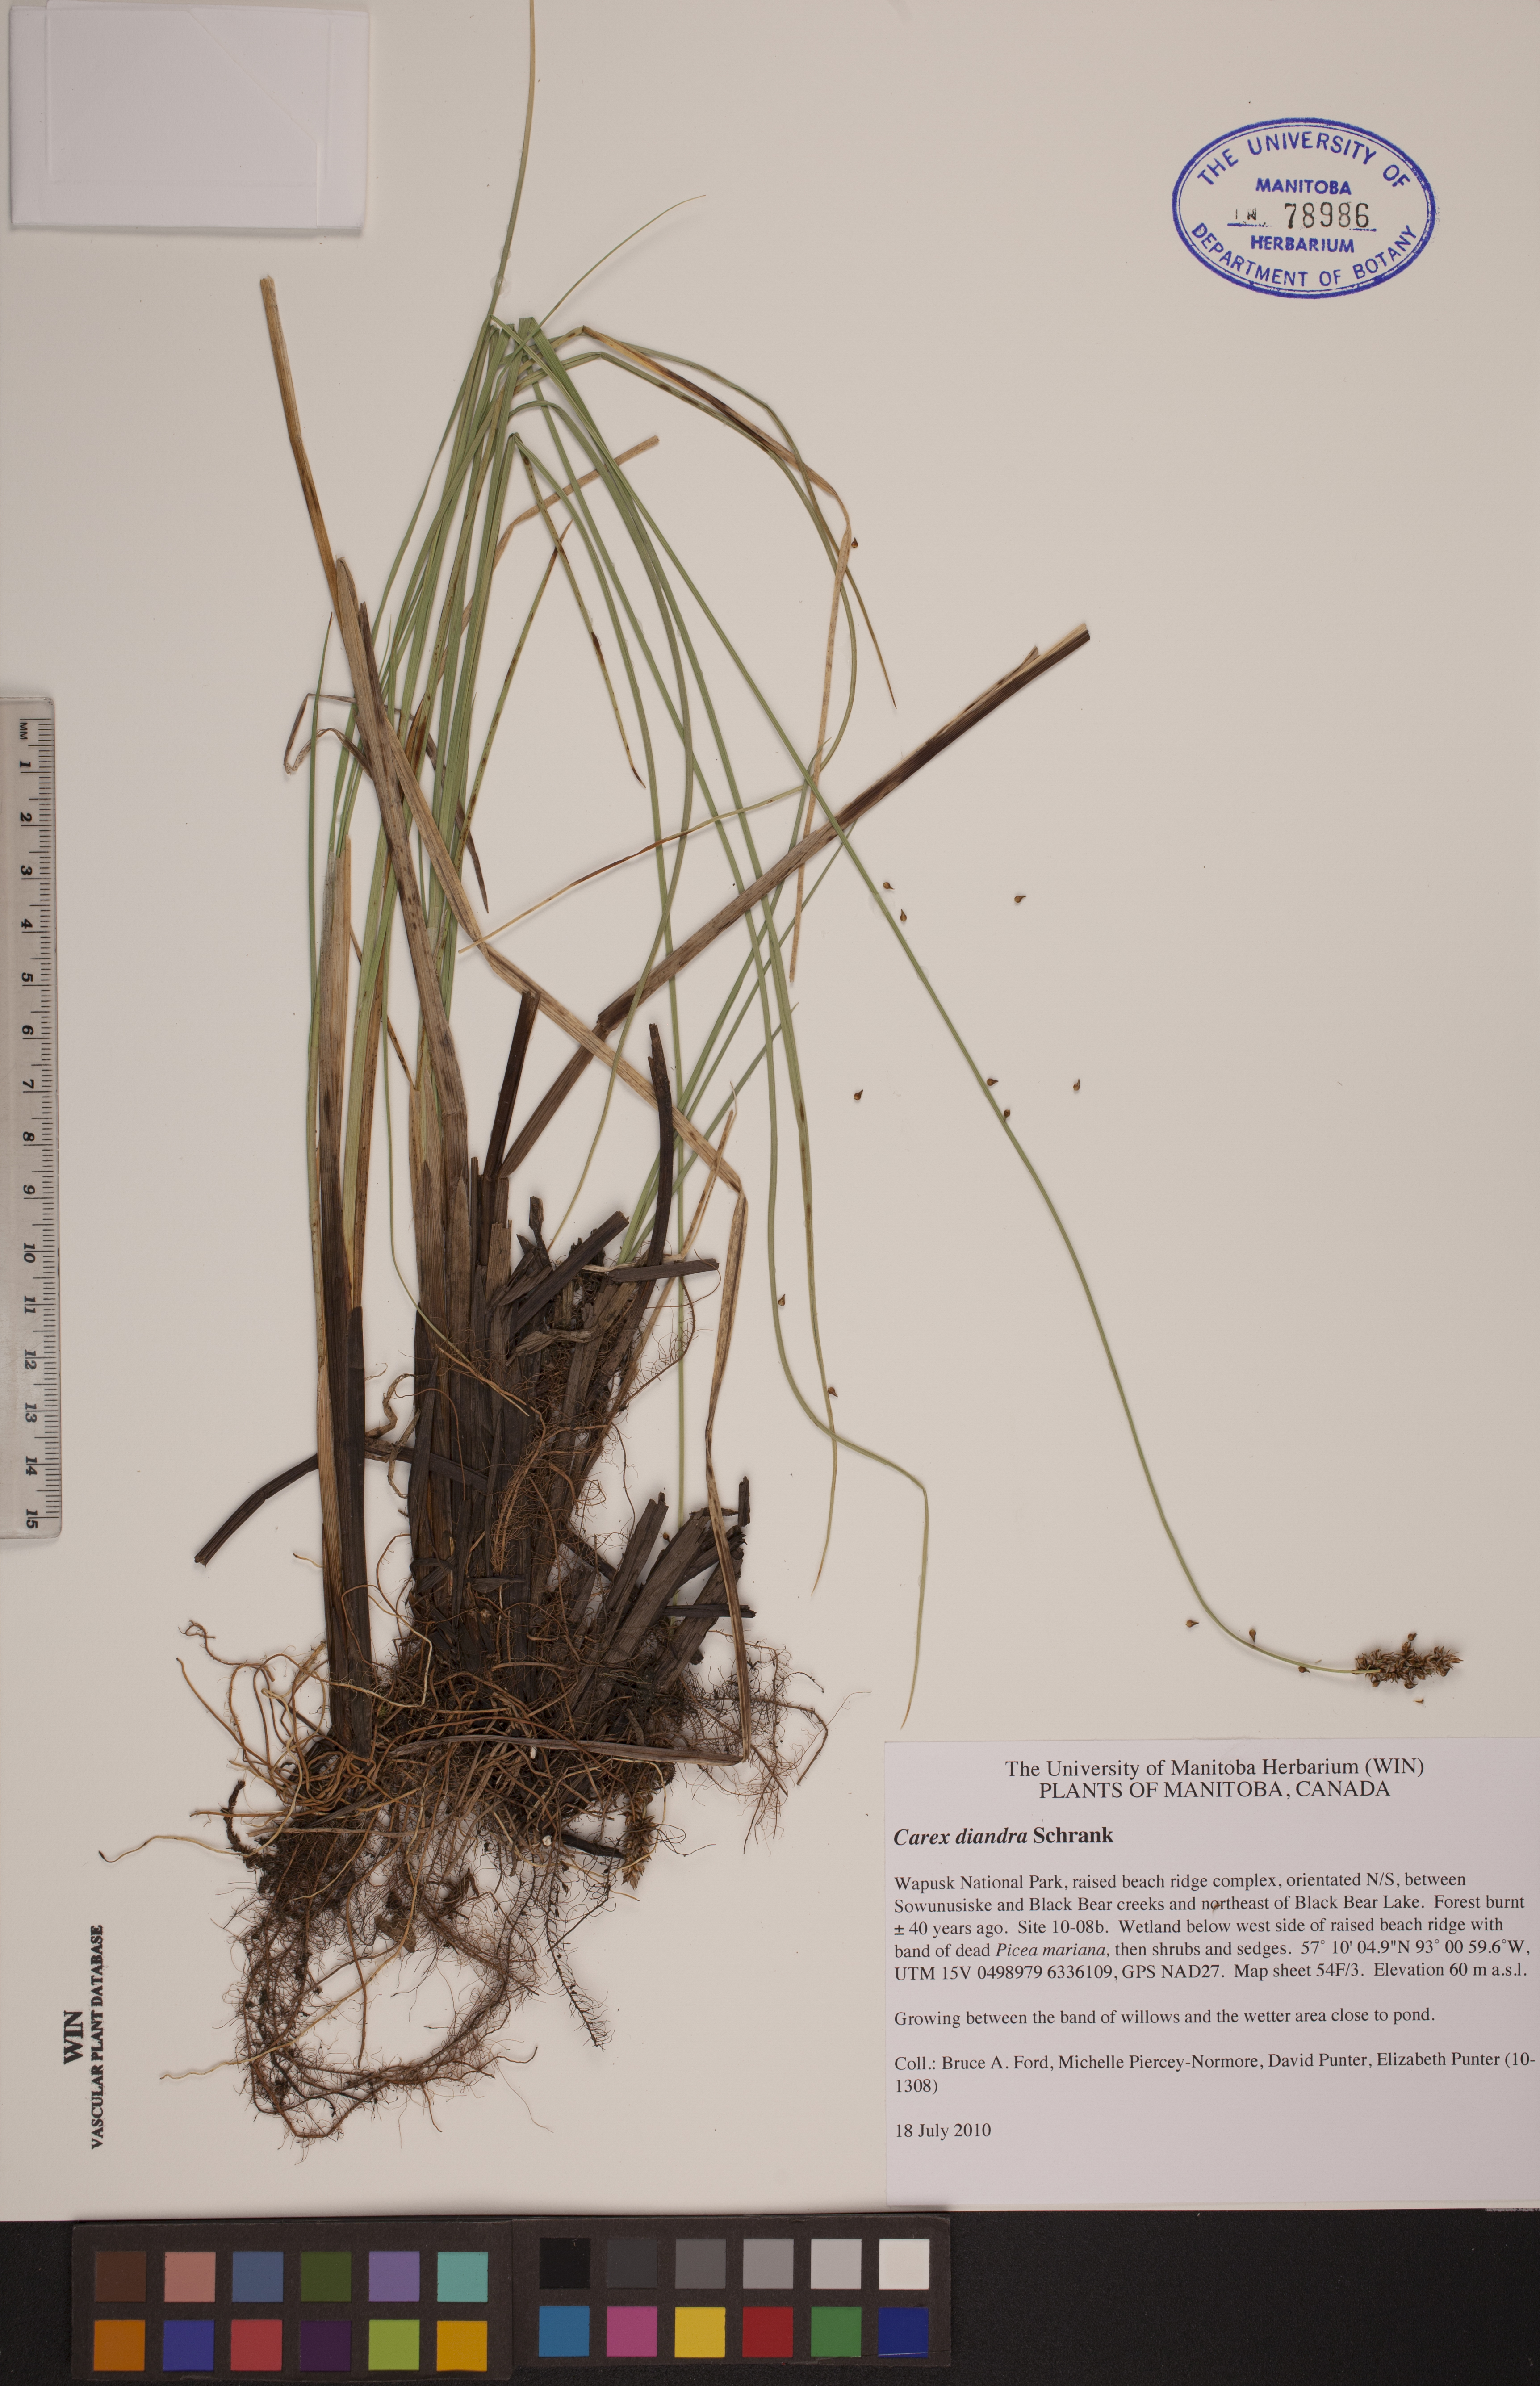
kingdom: Plantae
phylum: Tracheophyta
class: Liliopsida
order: Poales
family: Cyperaceae
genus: Carex
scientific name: Carex diandra
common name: Lesser tussock-sedge
